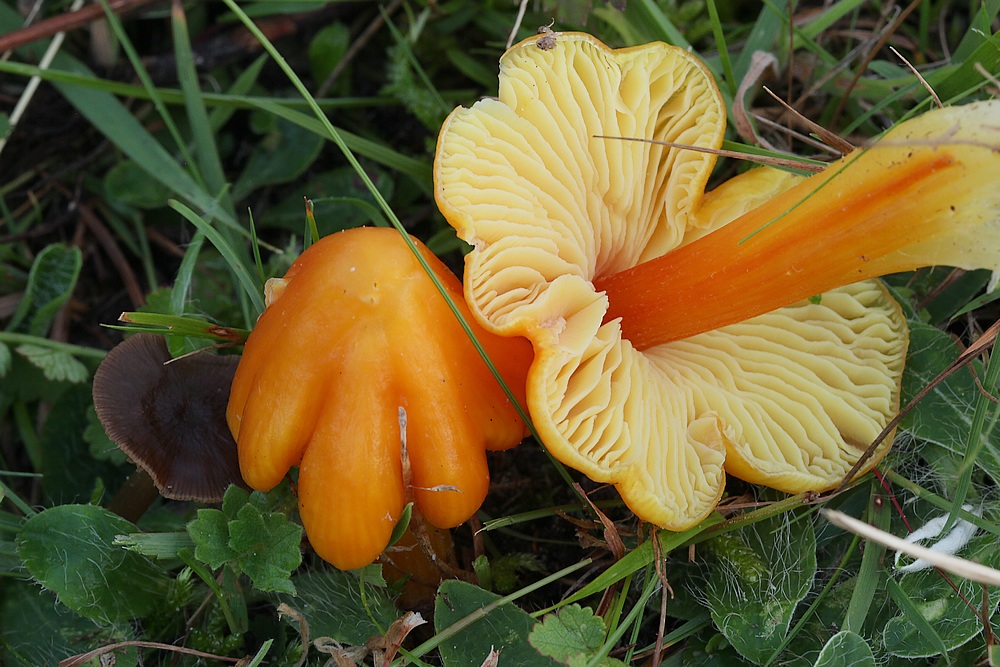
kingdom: Fungi
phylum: Basidiomycota
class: Agaricomycetes
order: Agaricales
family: Hygrophoraceae
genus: Hygrocybe
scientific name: Hygrocybe
